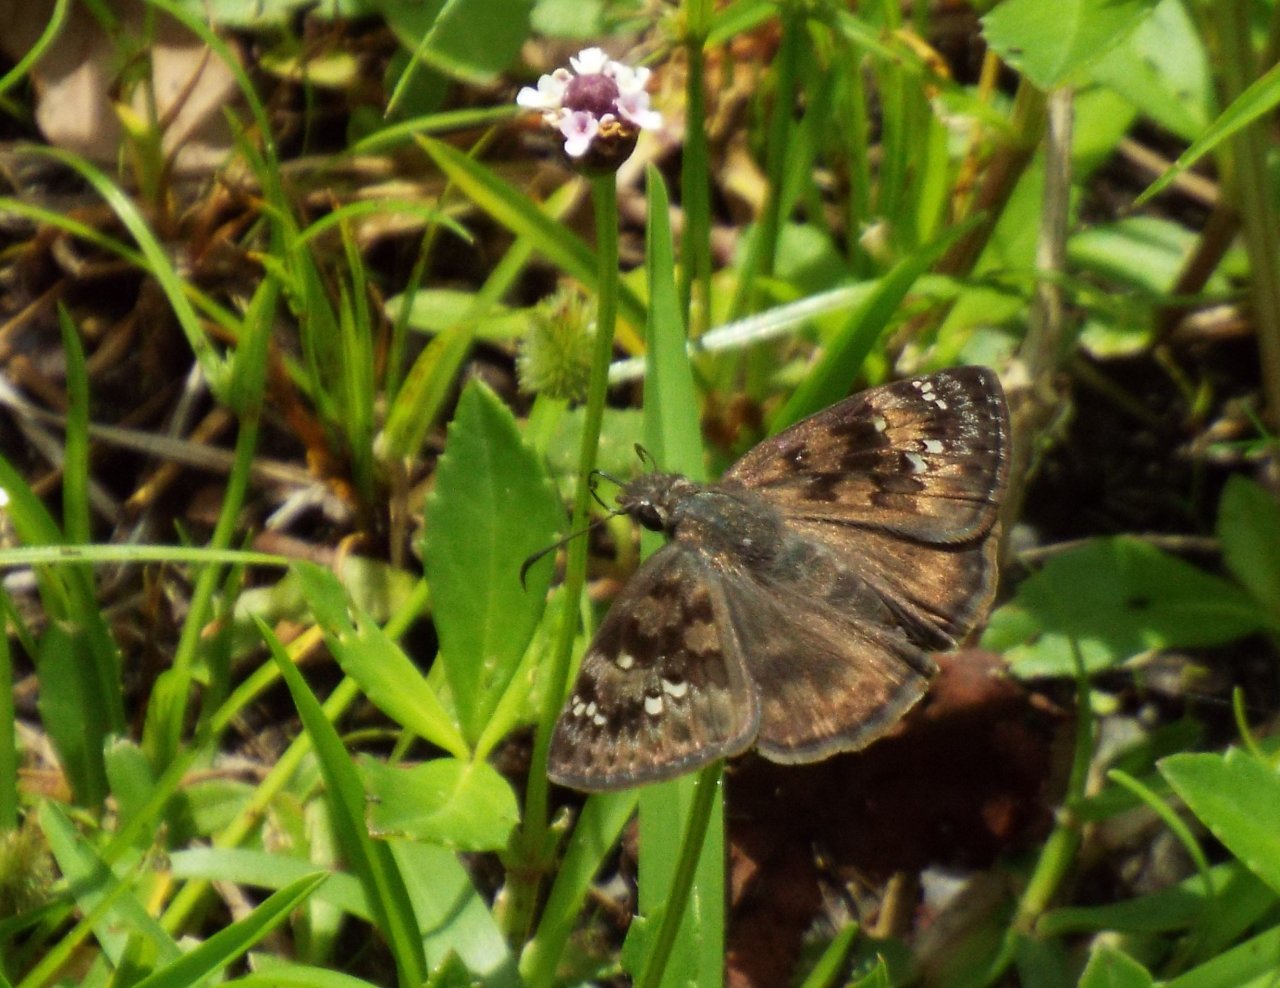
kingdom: Animalia
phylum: Arthropoda
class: Insecta
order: Lepidoptera
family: Hesperiidae
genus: Gesta
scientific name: Gesta
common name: Horace's Duskywing
